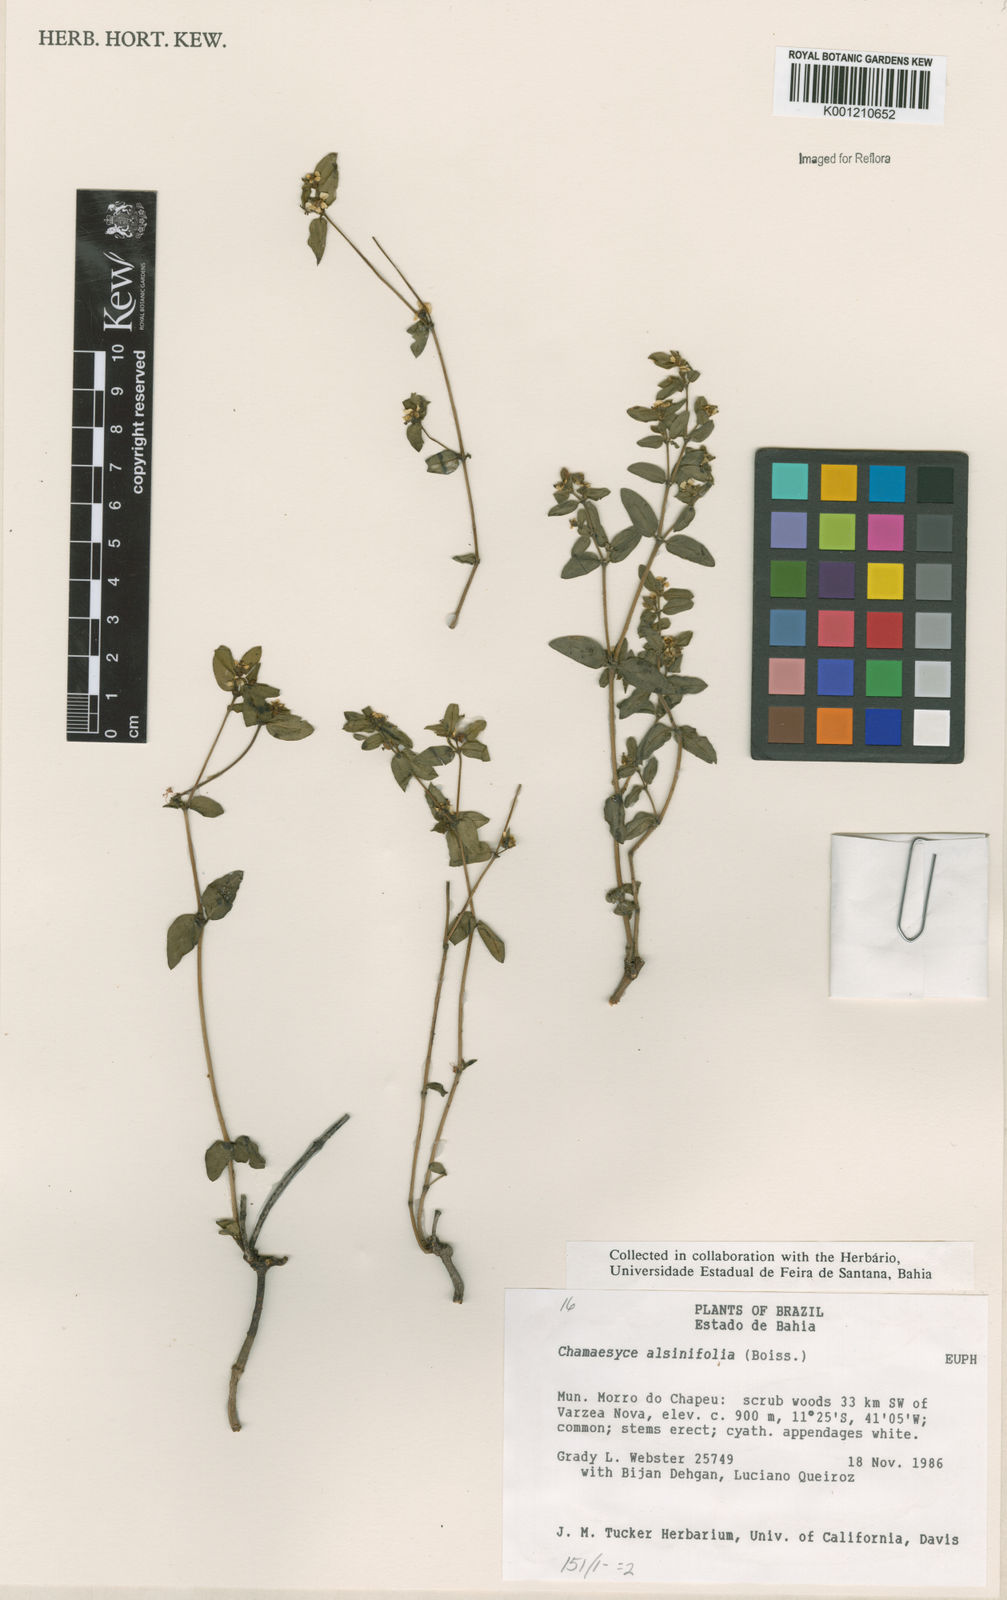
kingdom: Plantae
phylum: Tracheophyta
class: Magnoliopsida
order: Malpighiales
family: Euphorbiaceae
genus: Euphorbia
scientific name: Euphorbia mitchelliana
